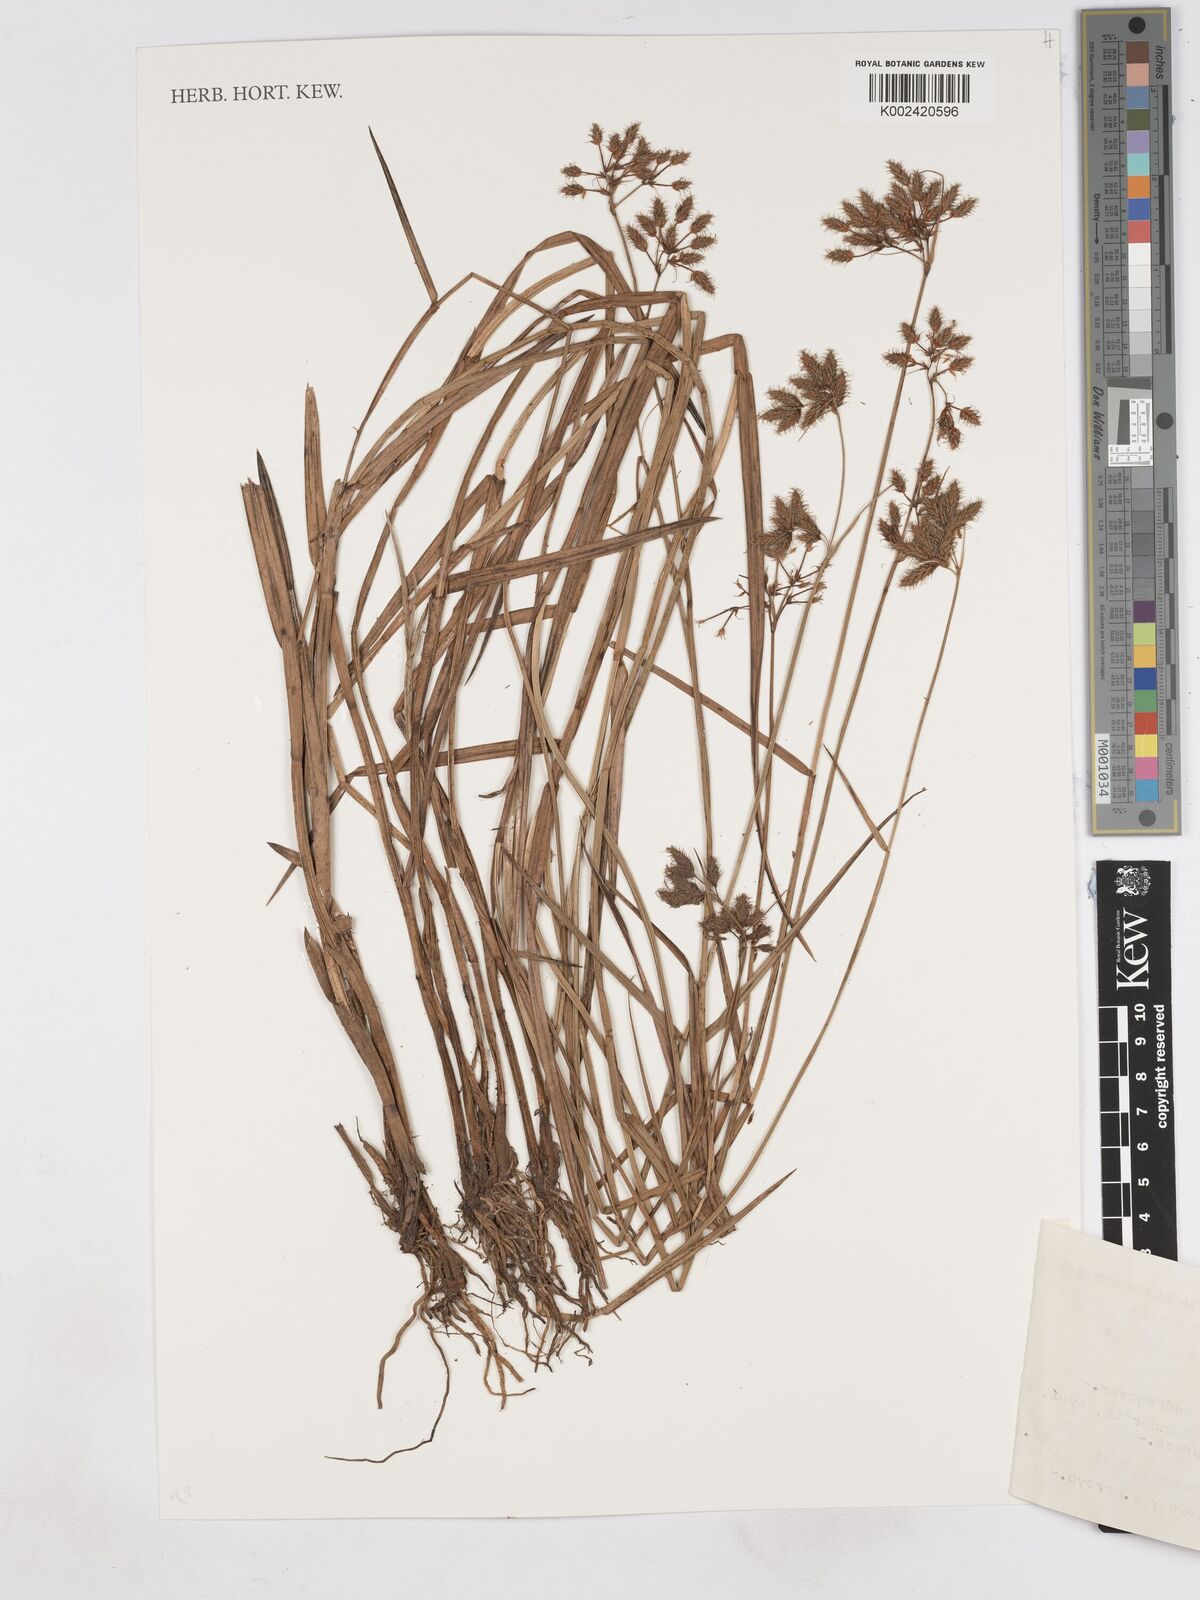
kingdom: Plantae
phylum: Tracheophyta
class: Liliopsida
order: Poales
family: Cyperaceae
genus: Fuirena
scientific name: Fuirena incompleta
